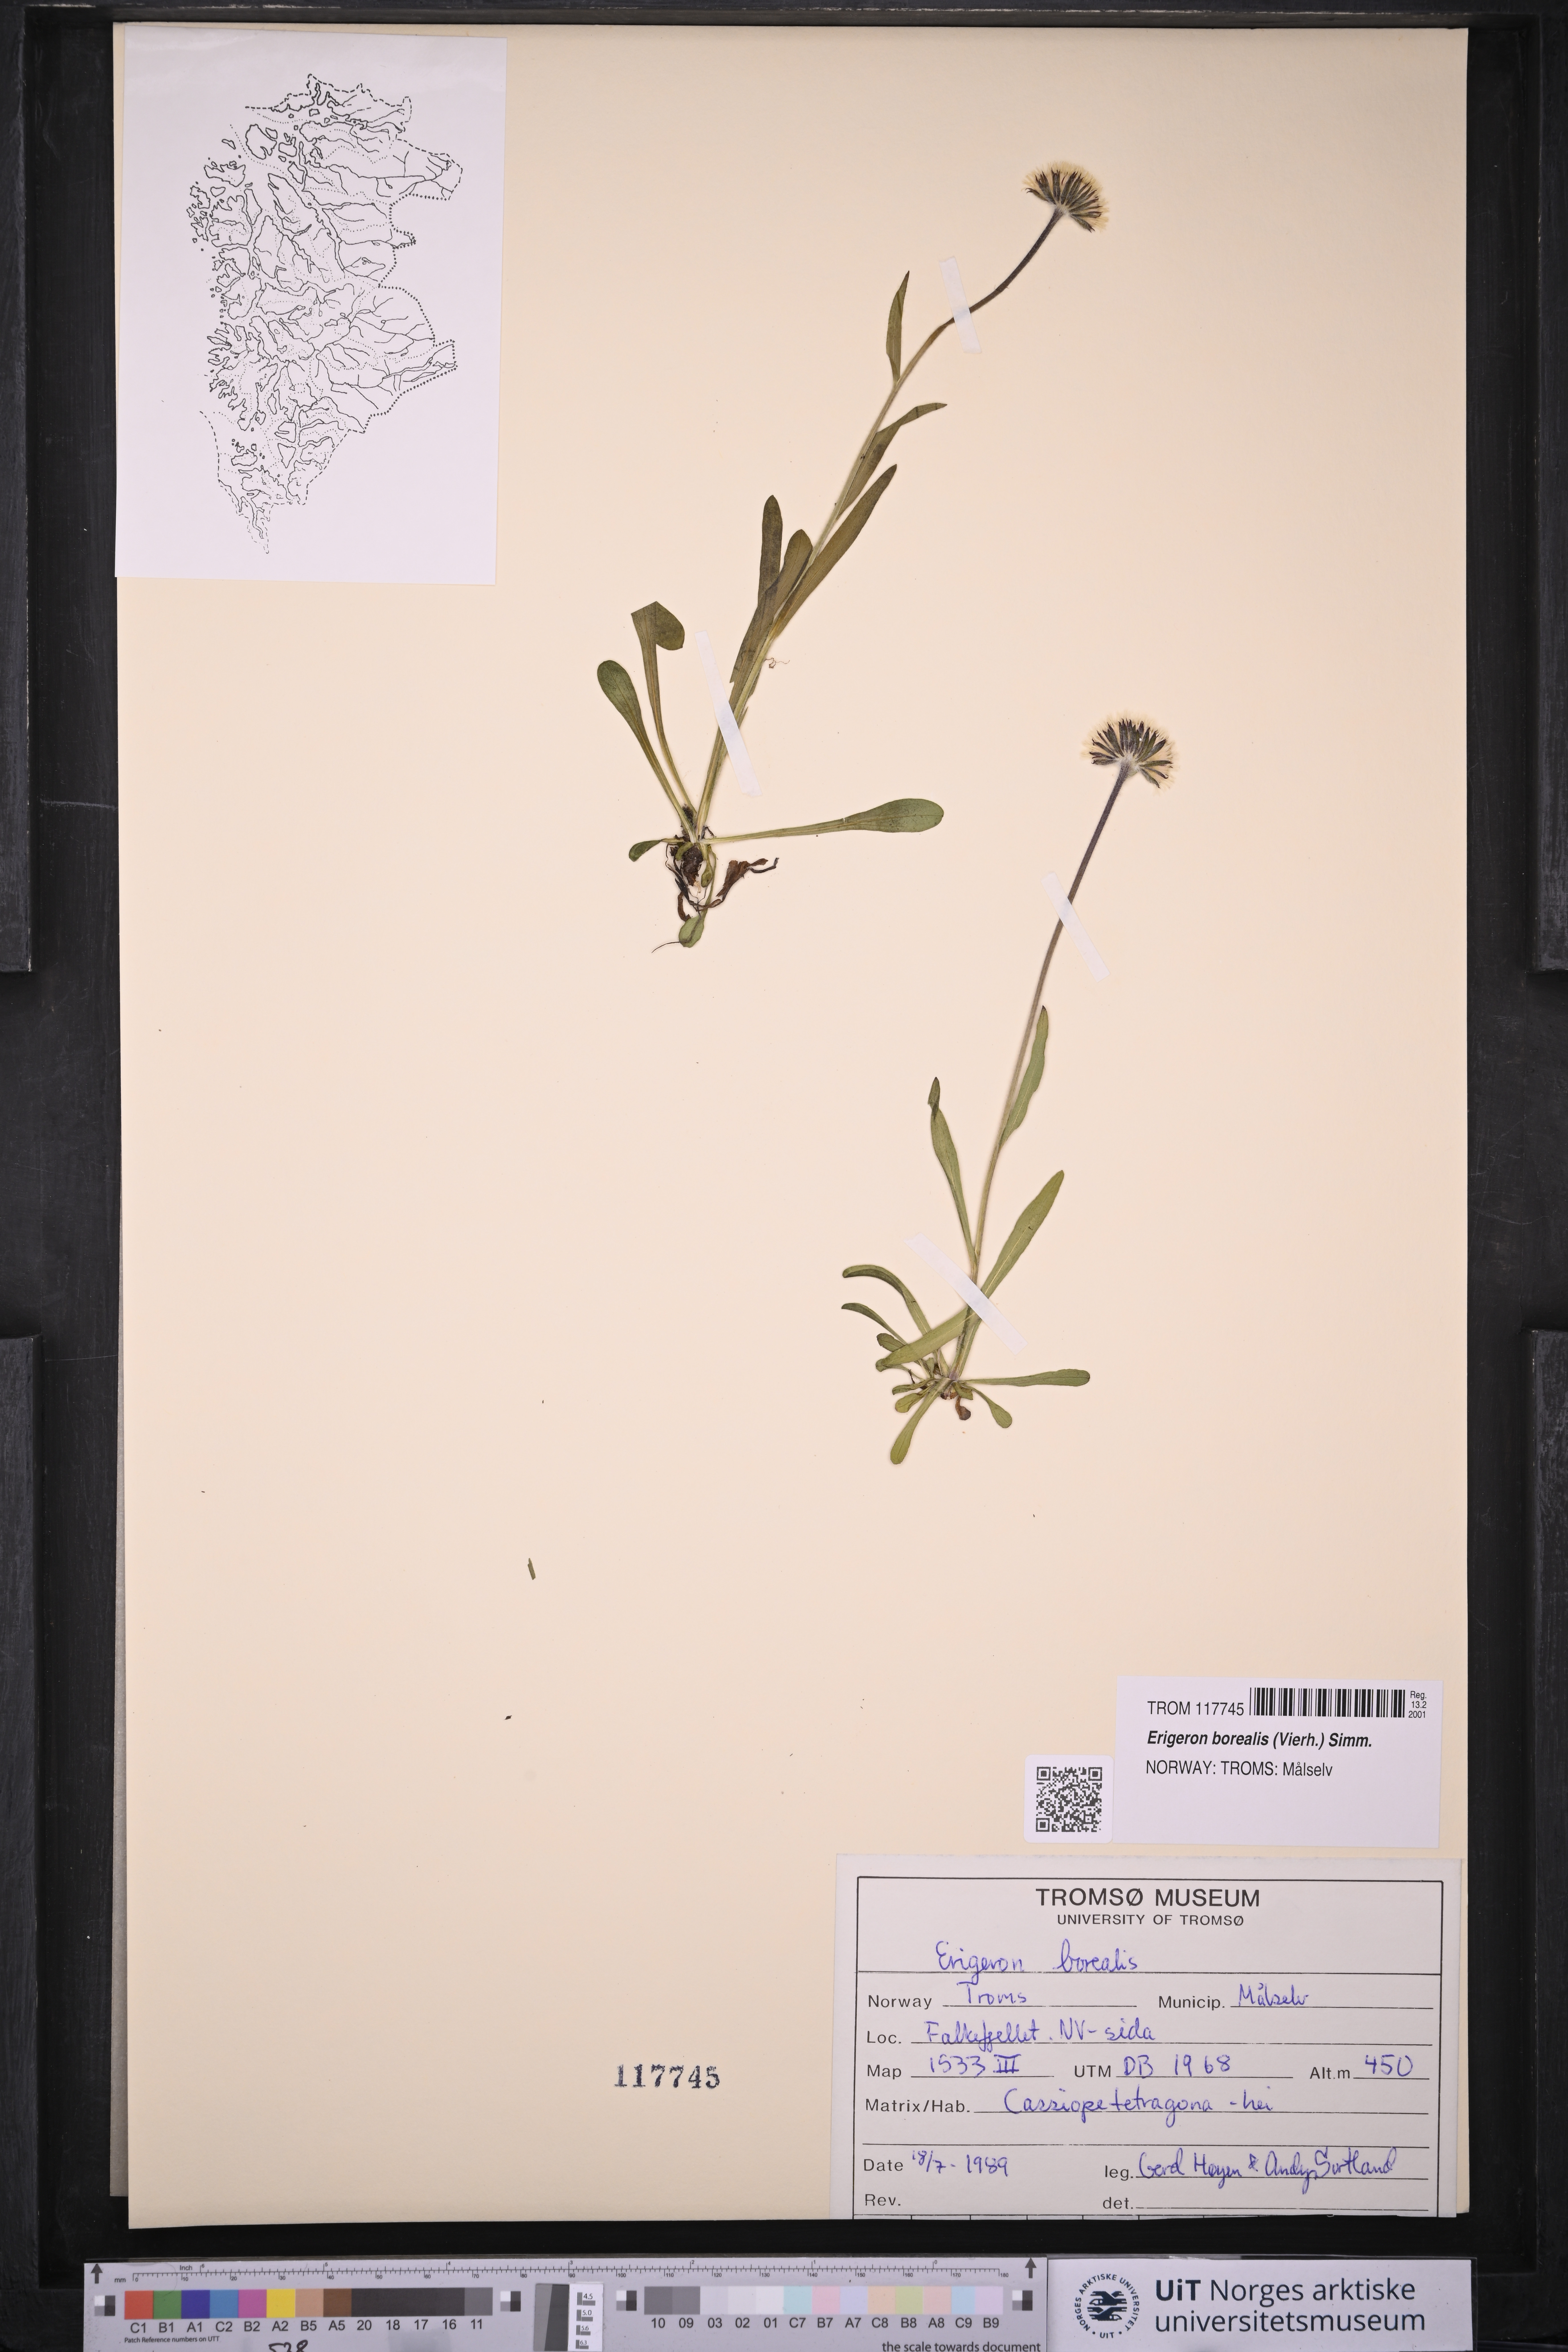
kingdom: Plantae
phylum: Tracheophyta
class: Magnoliopsida
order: Asterales
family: Asteraceae
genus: Erigeron
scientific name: Erigeron borealis
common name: Alpine fleabane
